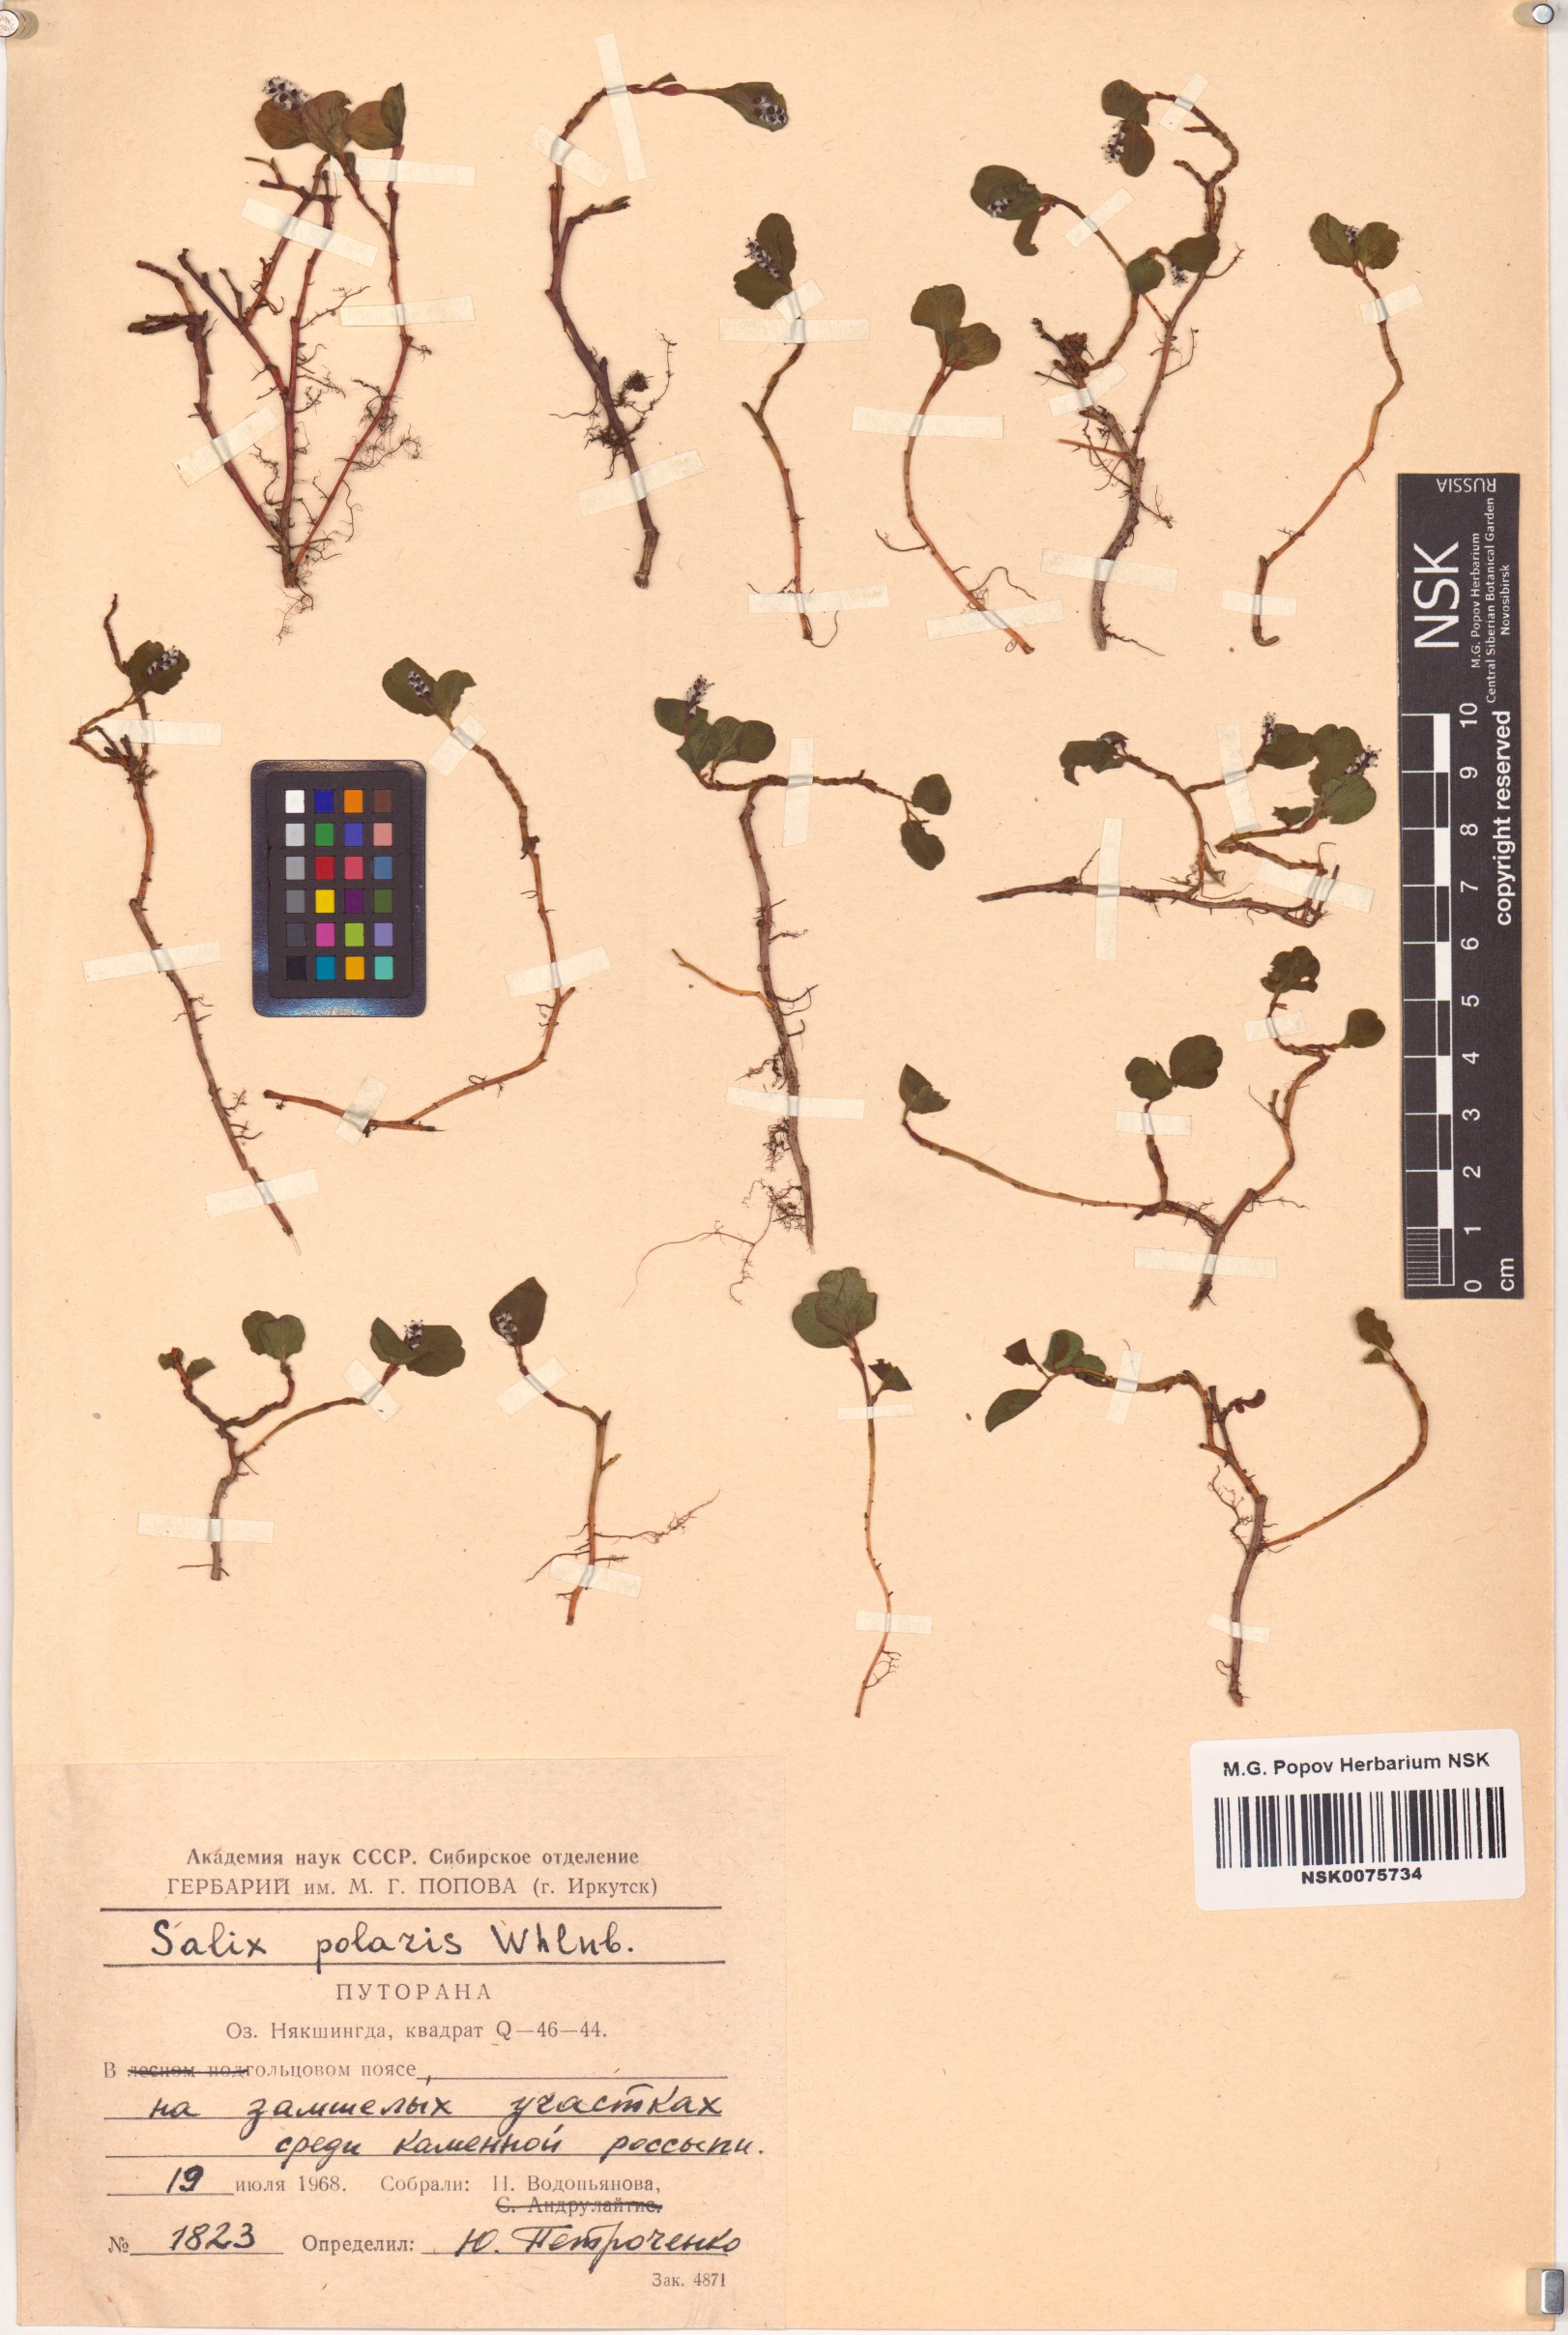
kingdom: Plantae
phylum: Tracheophyta
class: Magnoliopsida
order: Malpighiales
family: Salicaceae
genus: Salix
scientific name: Salix polaris
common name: Polar willow
